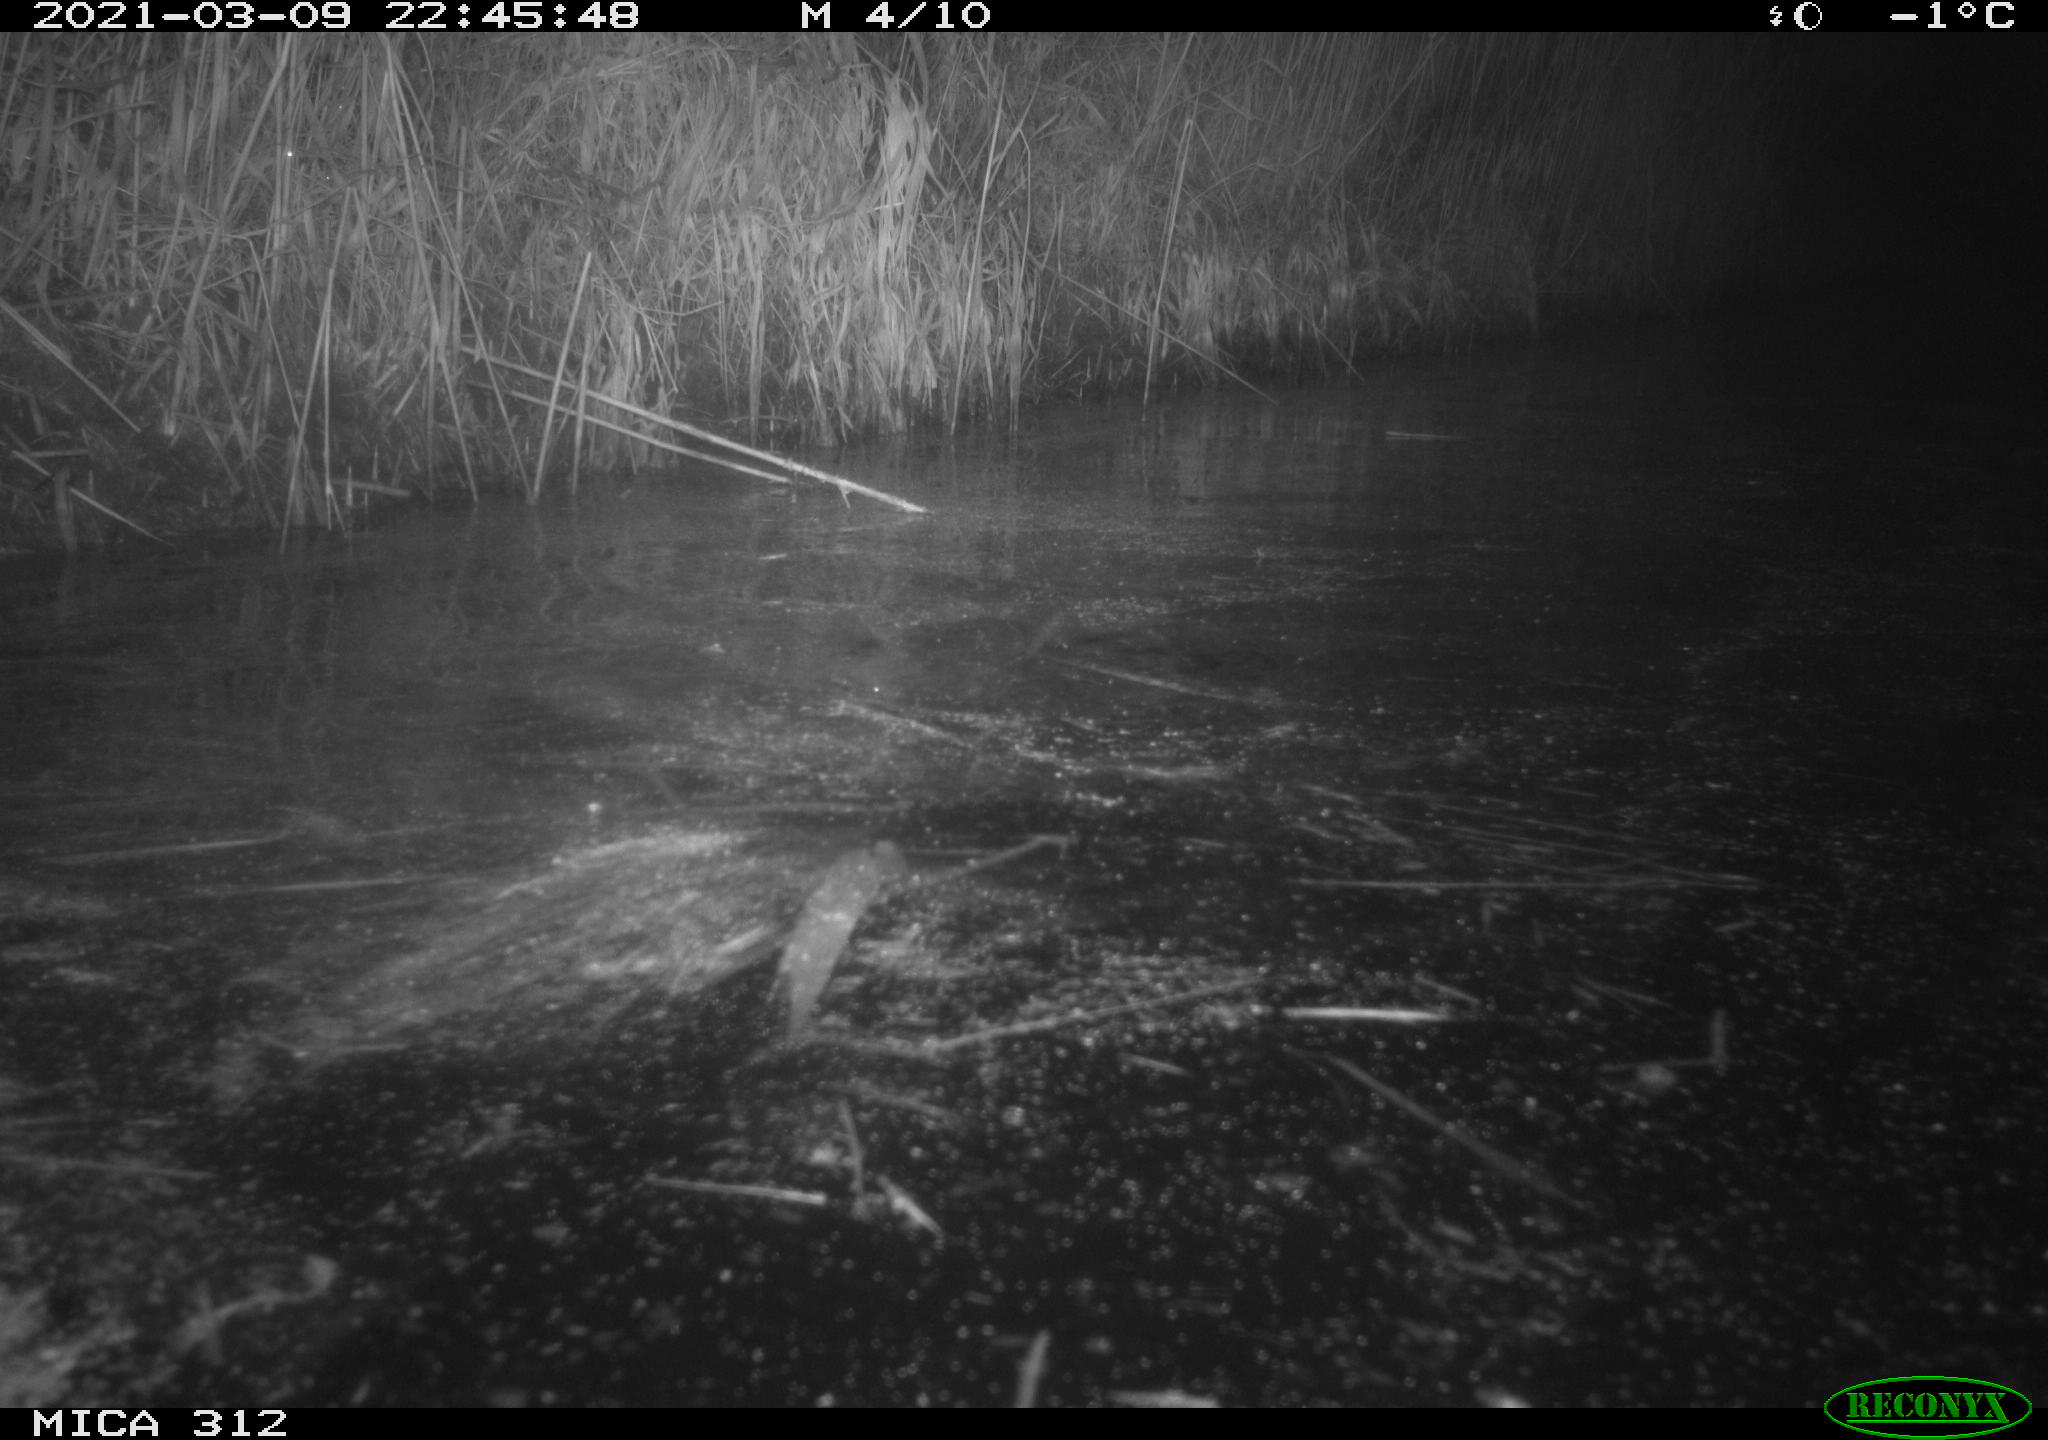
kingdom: Animalia
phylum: Chordata
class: Mammalia
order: Rodentia
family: Cricetidae
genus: Ondatra
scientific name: Ondatra zibethicus
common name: Muskrat
